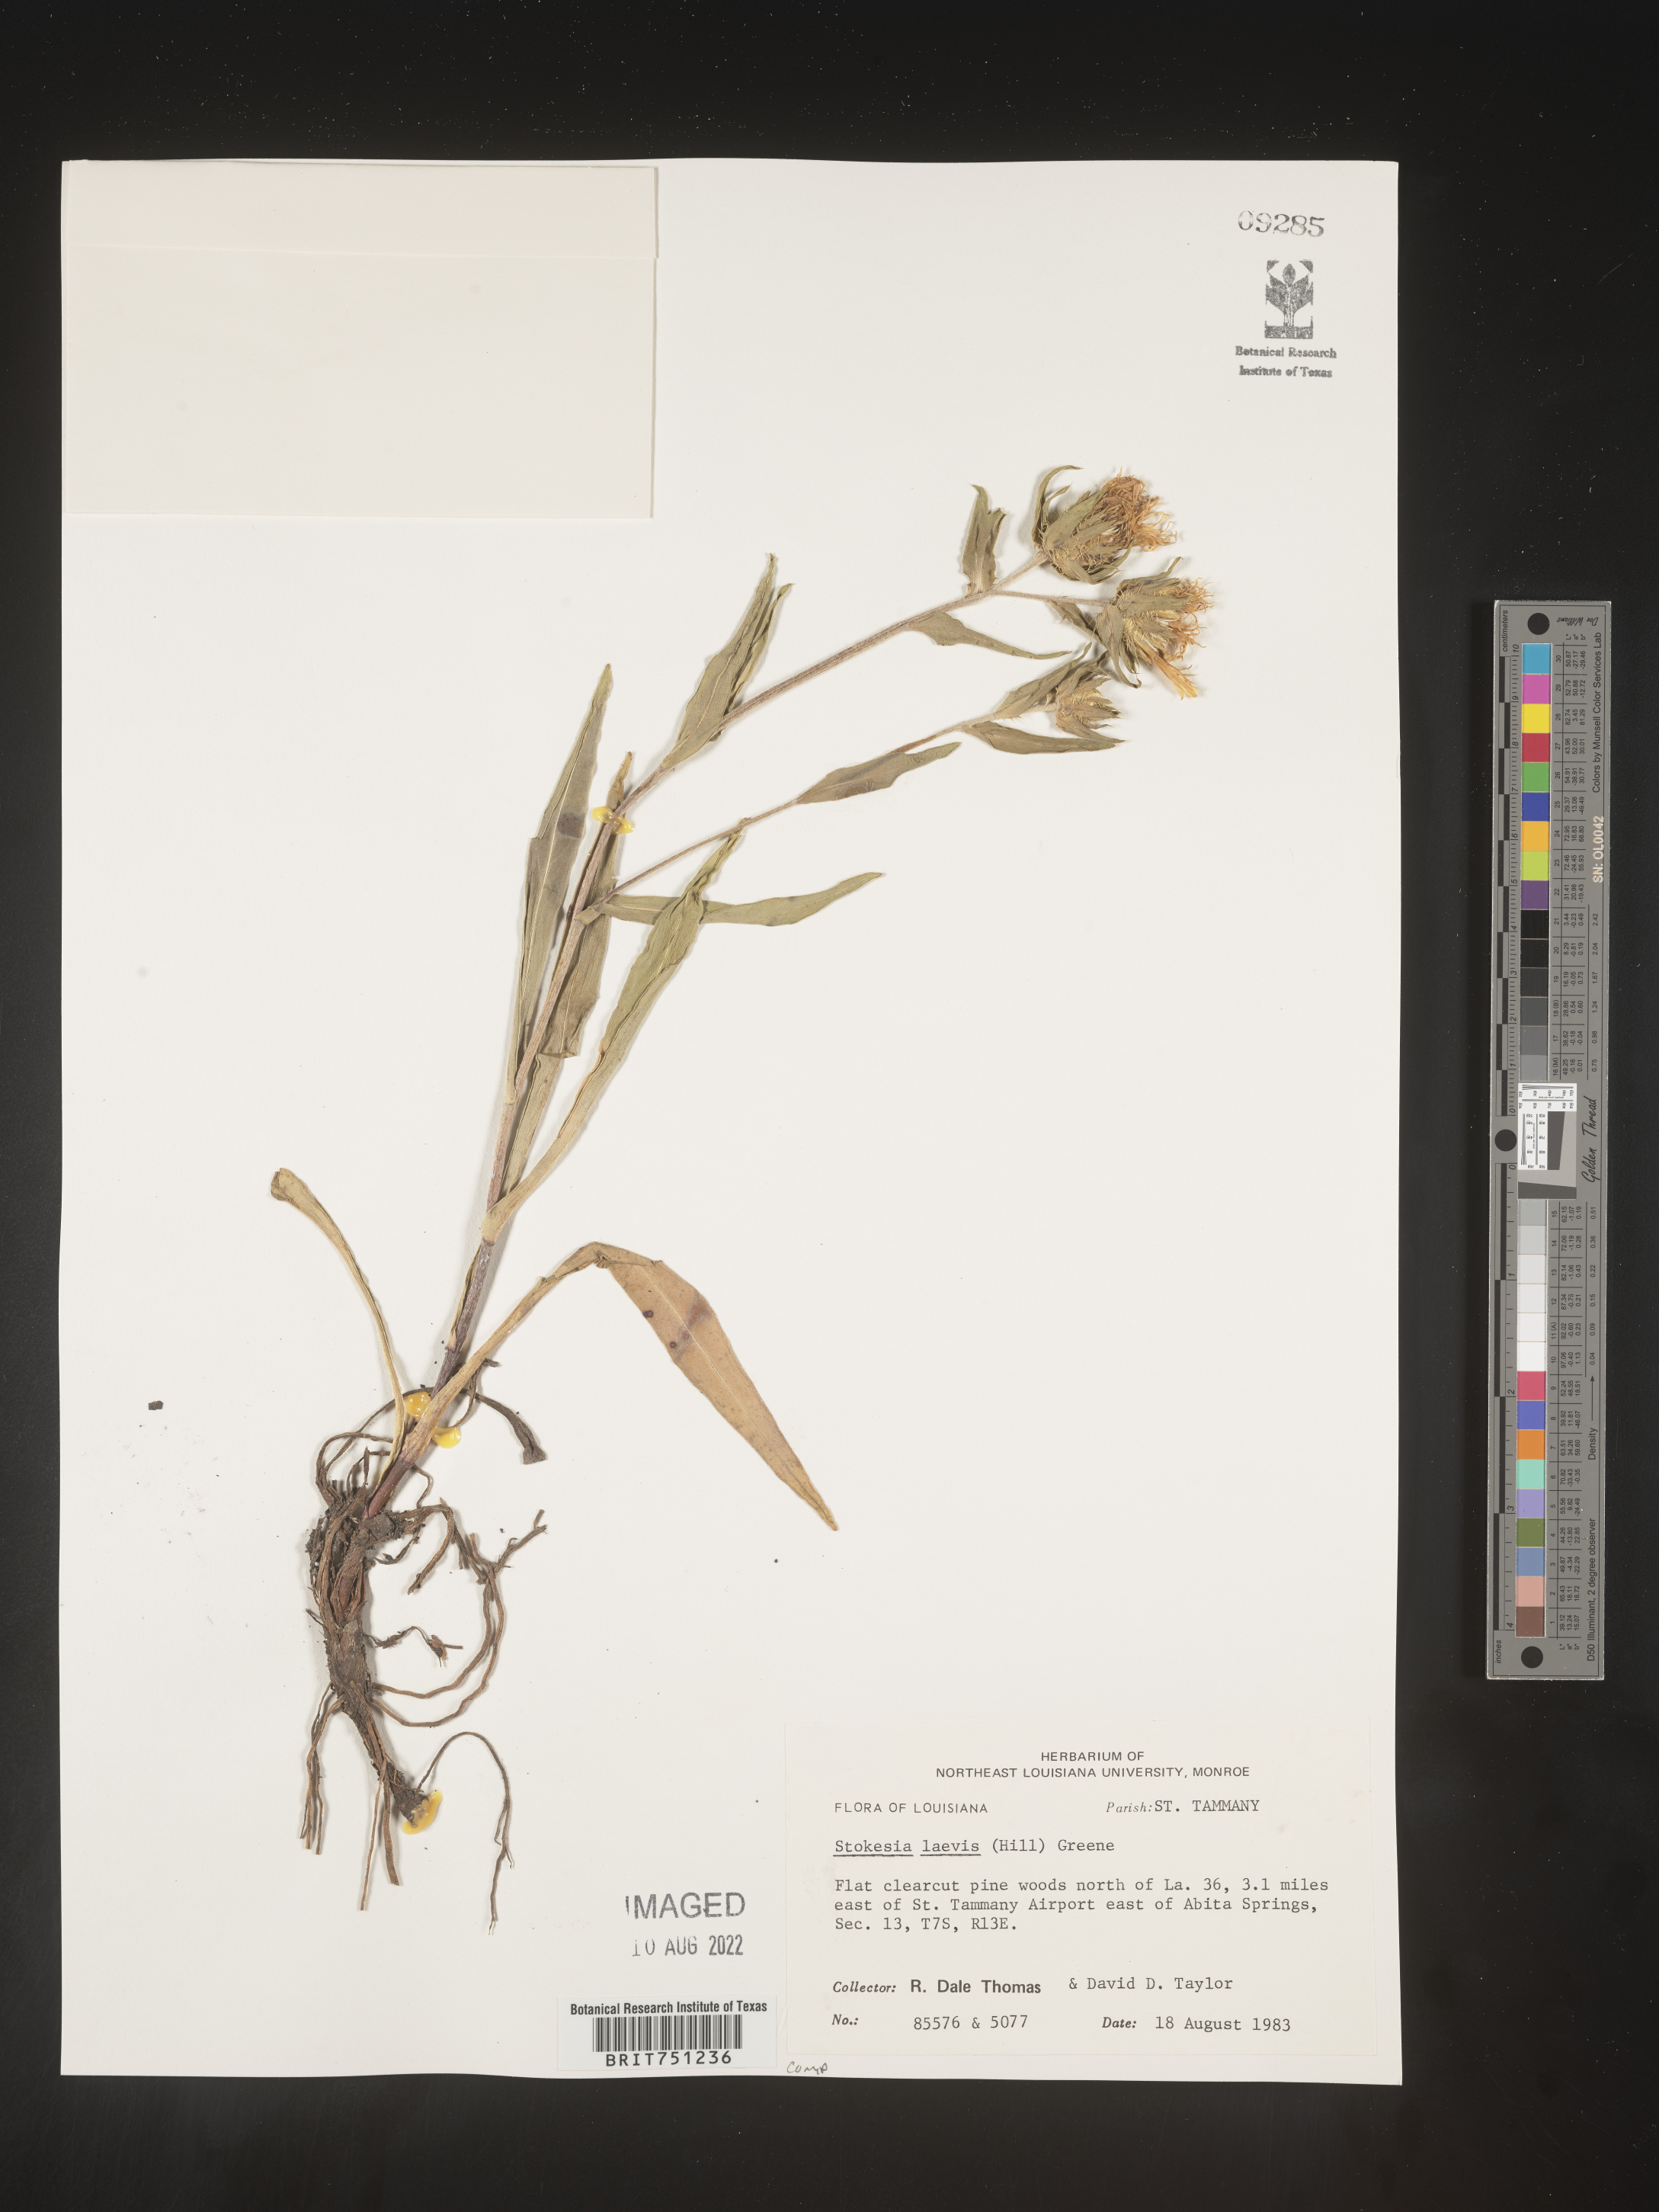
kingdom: Plantae
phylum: Tracheophyta
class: Magnoliopsida
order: Asterales
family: Asteraceae
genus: Stokesia
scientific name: Stokesia
